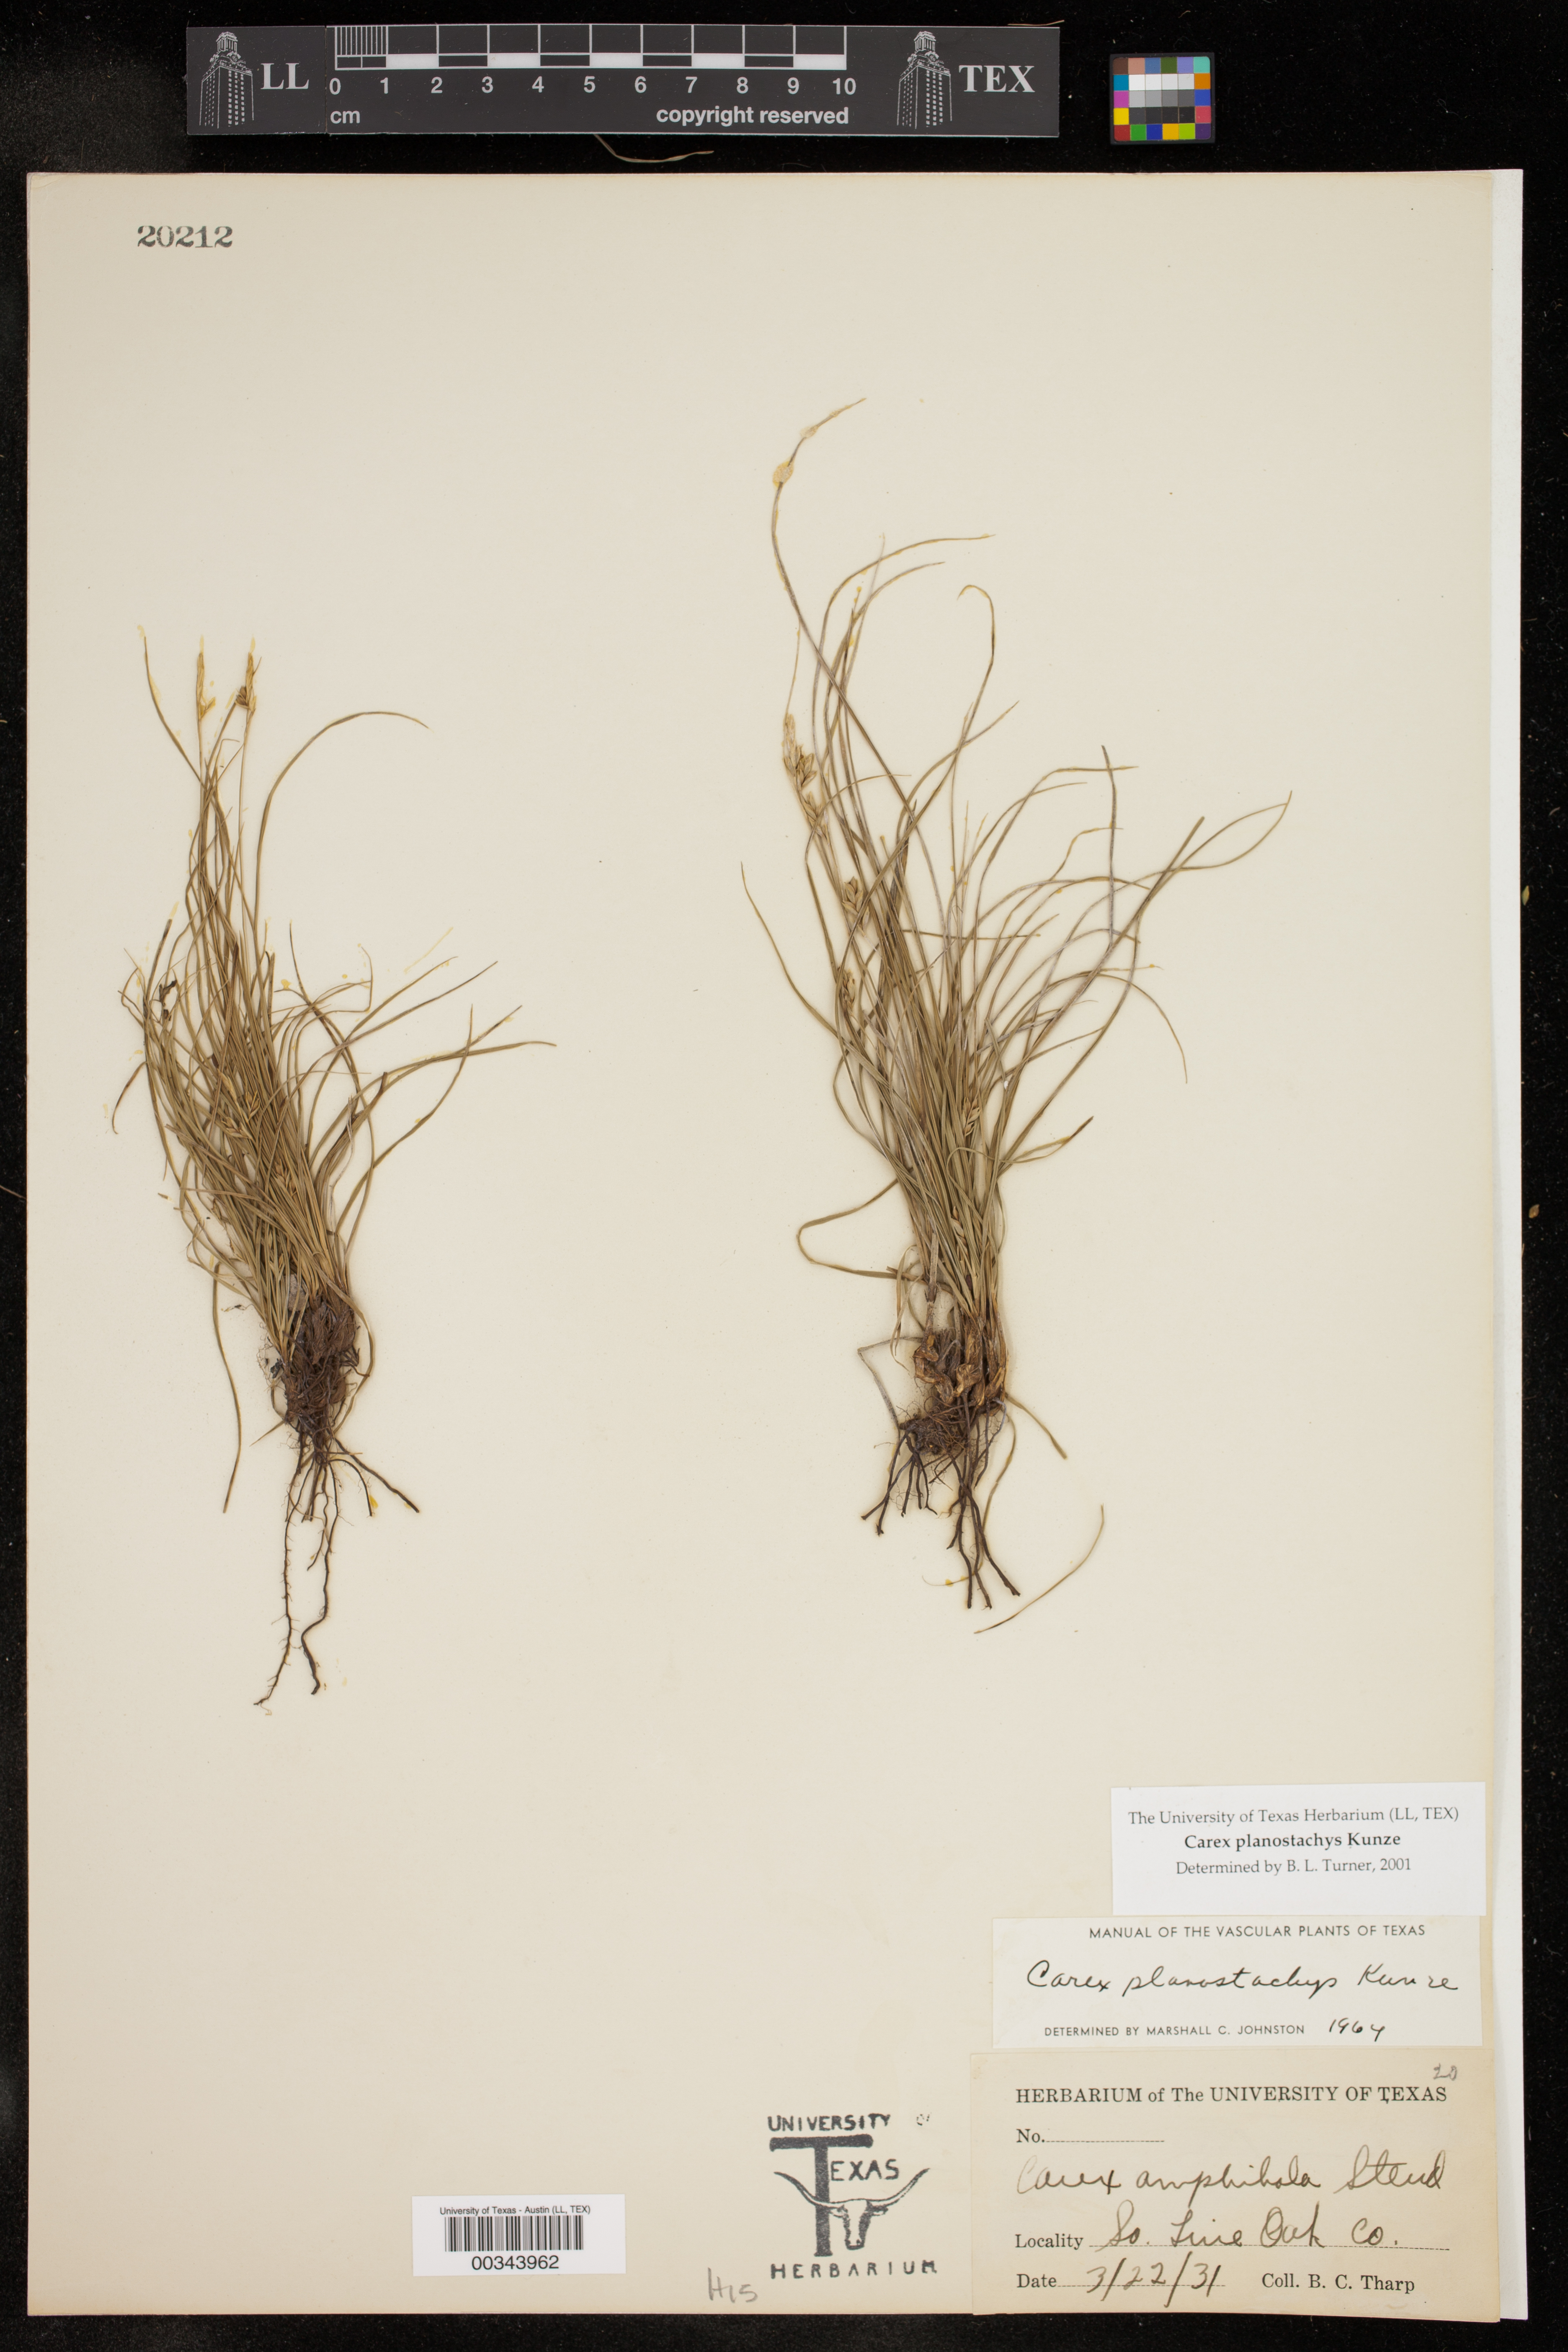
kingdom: Plantae
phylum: Tracheophyta
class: Liliopsida
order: Poales
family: Cyperaceae
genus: Carex
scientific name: Carex planostachys
